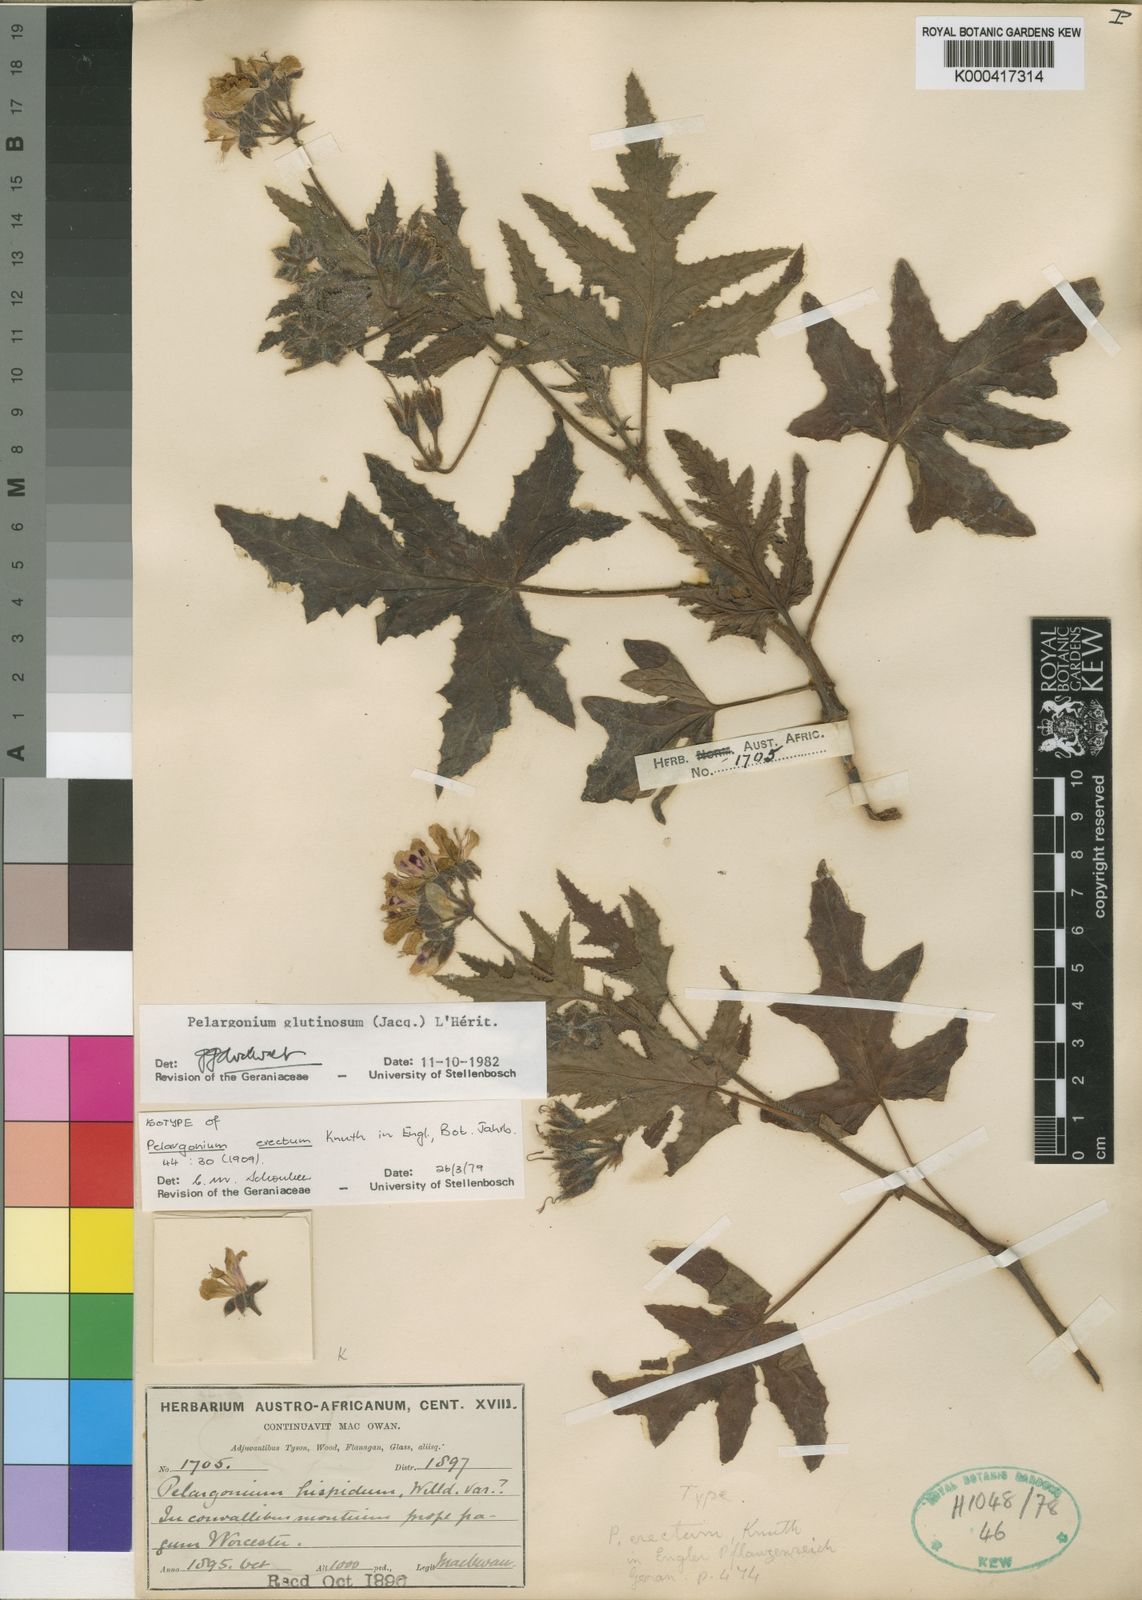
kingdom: Plantae
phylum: Tracheophyta
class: Magnoliopsida
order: Geraniales
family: Geraniaceae
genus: Pelargonium
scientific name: Pelargonium
